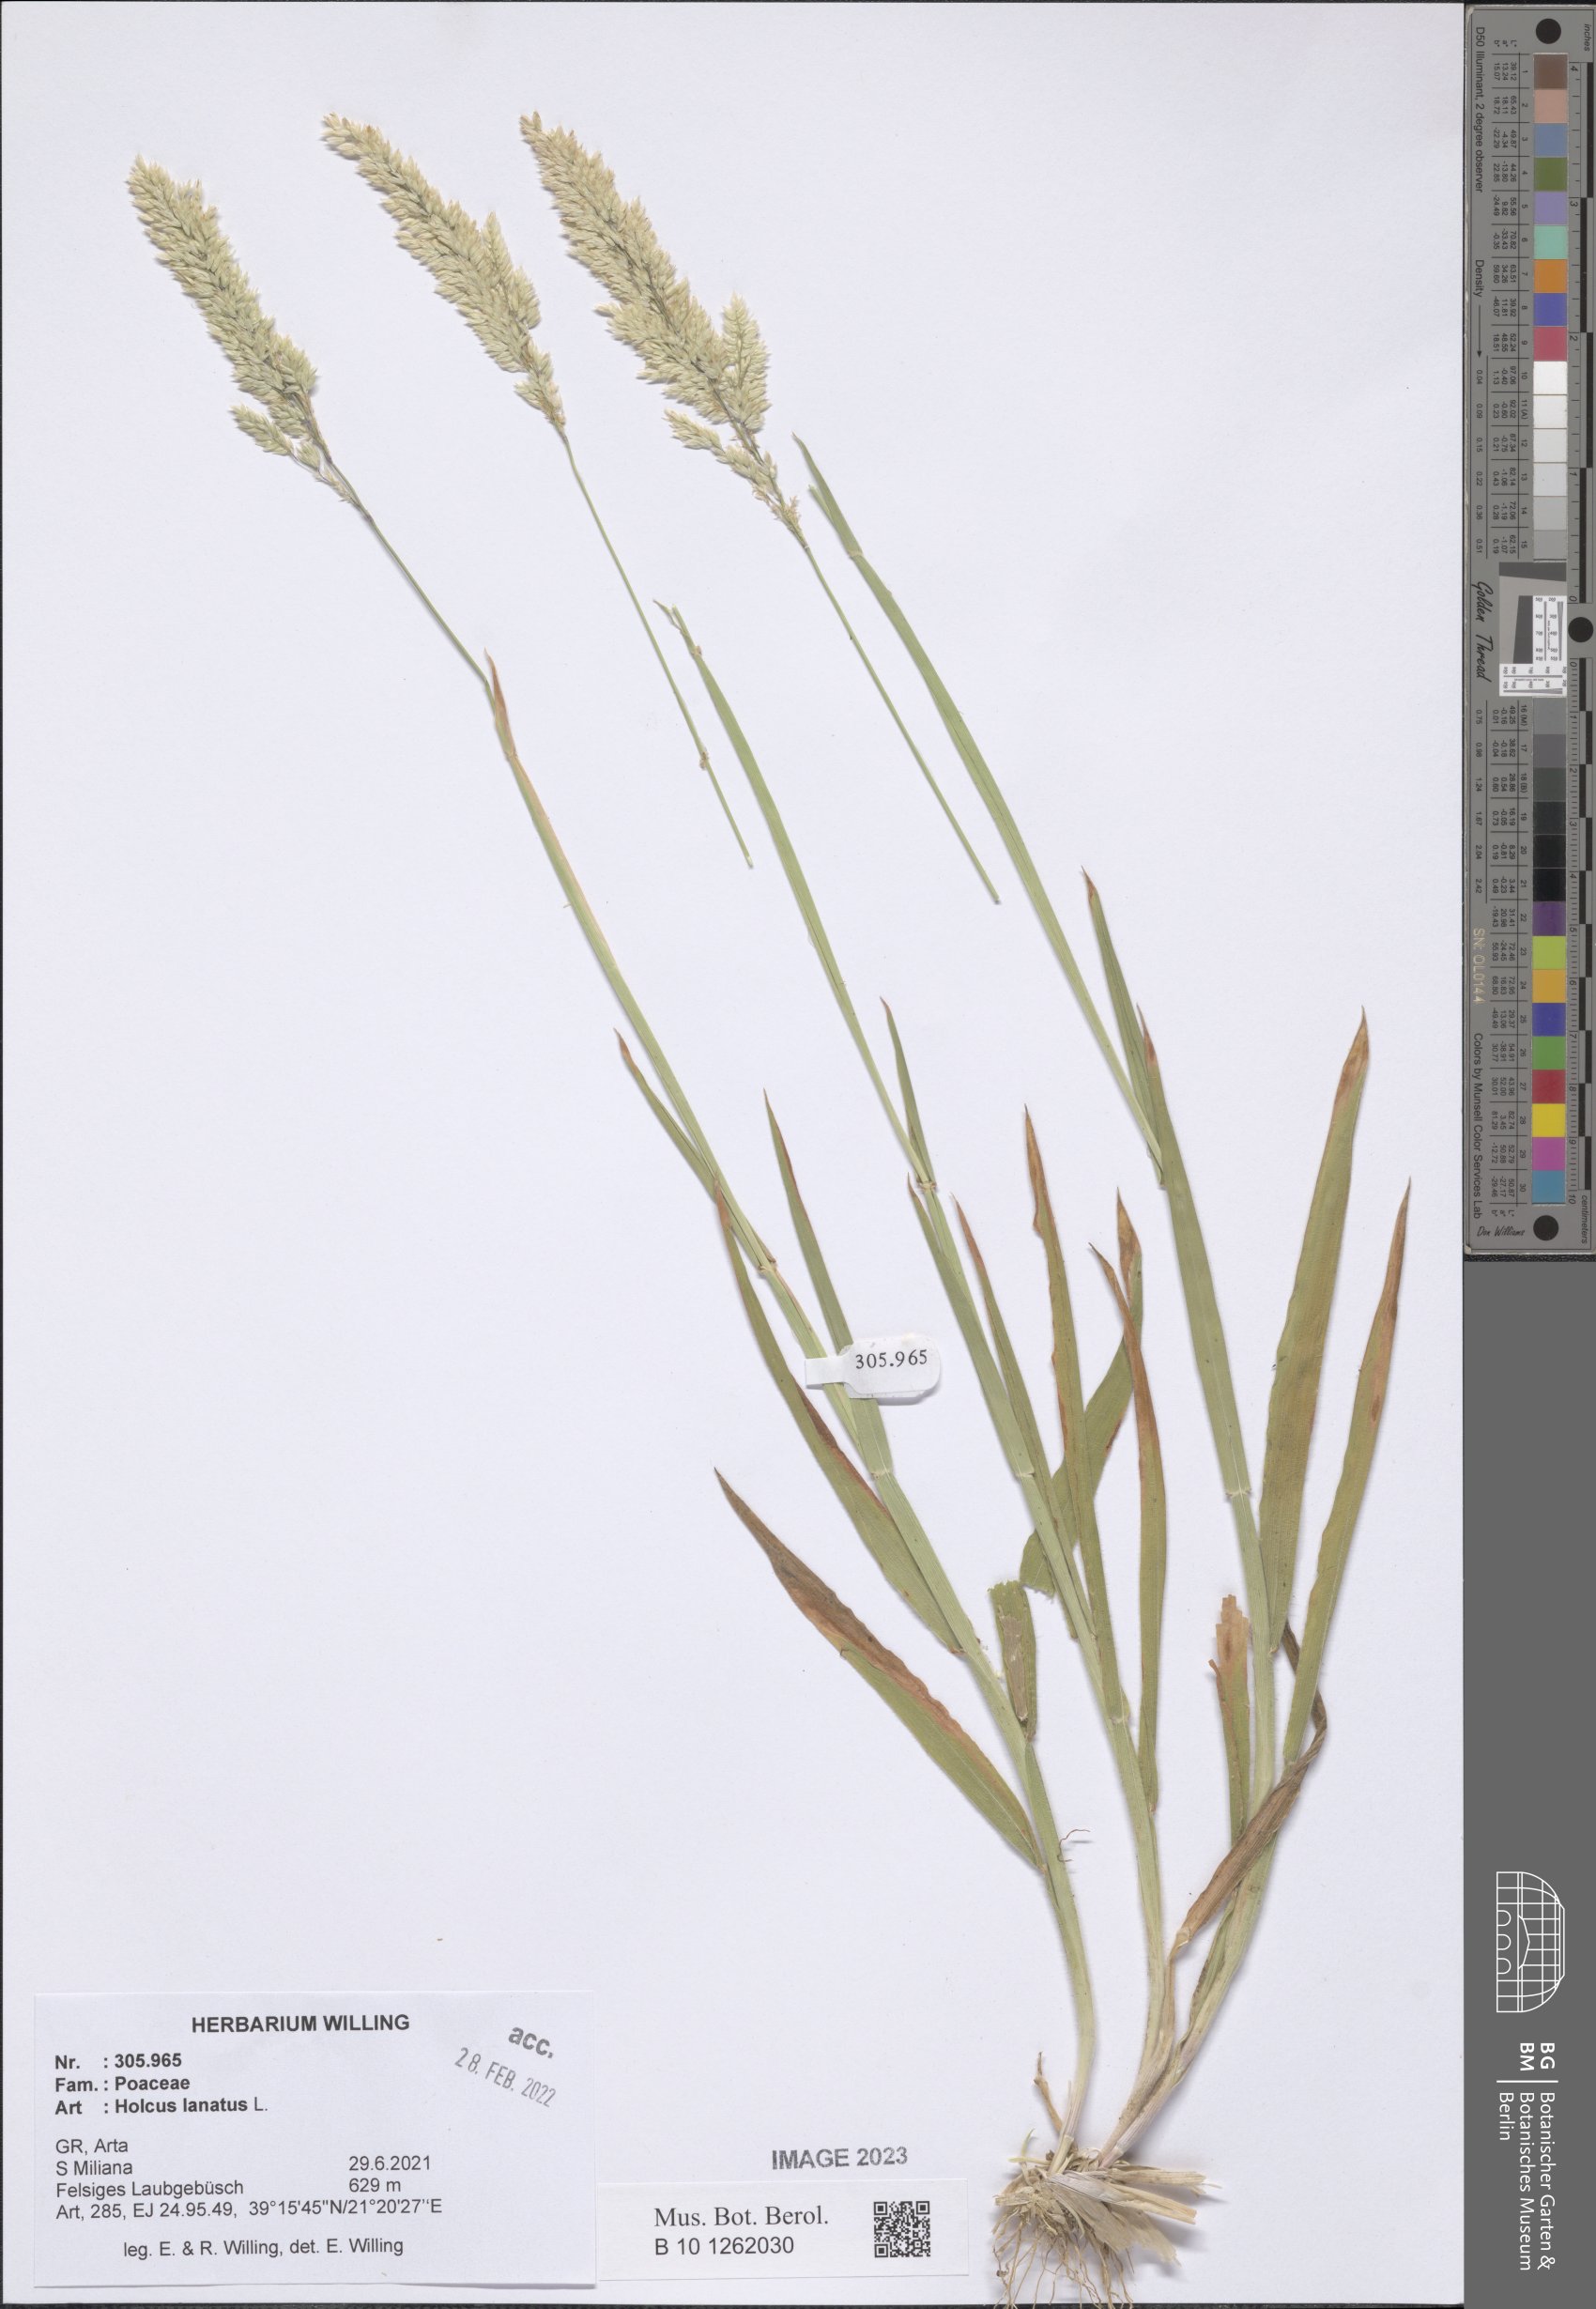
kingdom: Plantae
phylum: Tracheophyta
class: Liliopsida
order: Poales
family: Poaceae
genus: Holcus
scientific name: Holcus lanatus
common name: Yorkshire-fog
